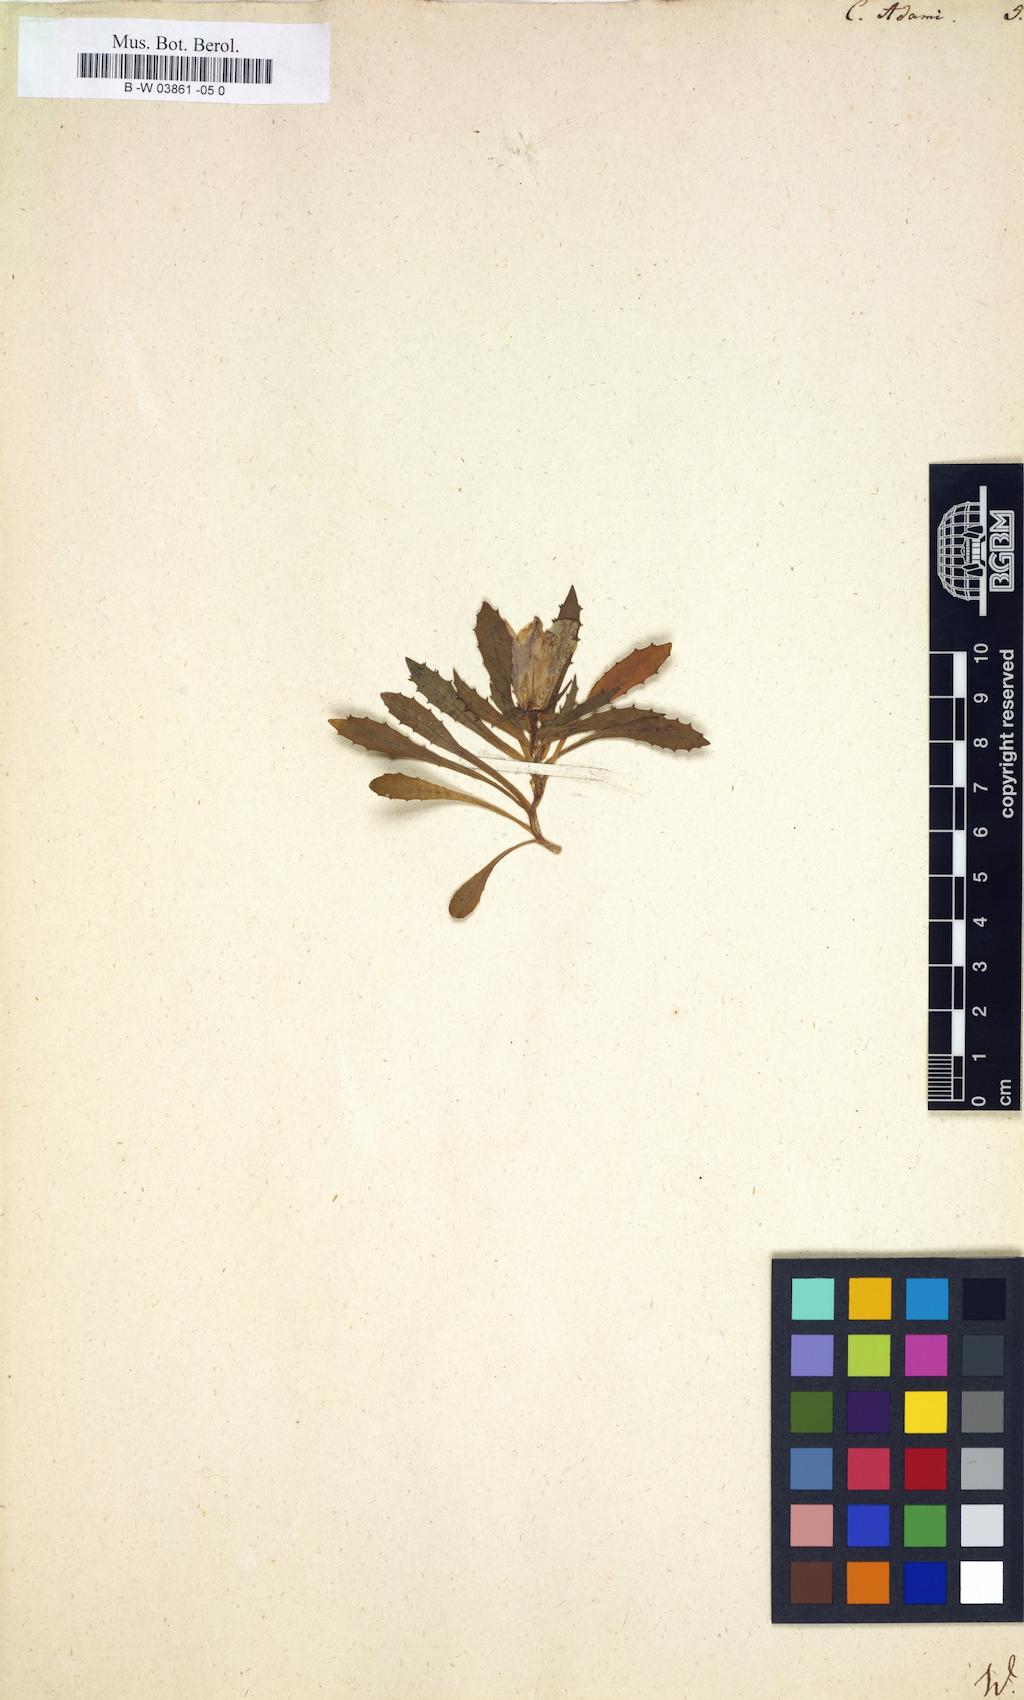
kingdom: Plantae
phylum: Tracheophyta
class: Magnoliopsida
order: Asterales
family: Campanulaceae
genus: Campanula
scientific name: Campanula bellidifolia
